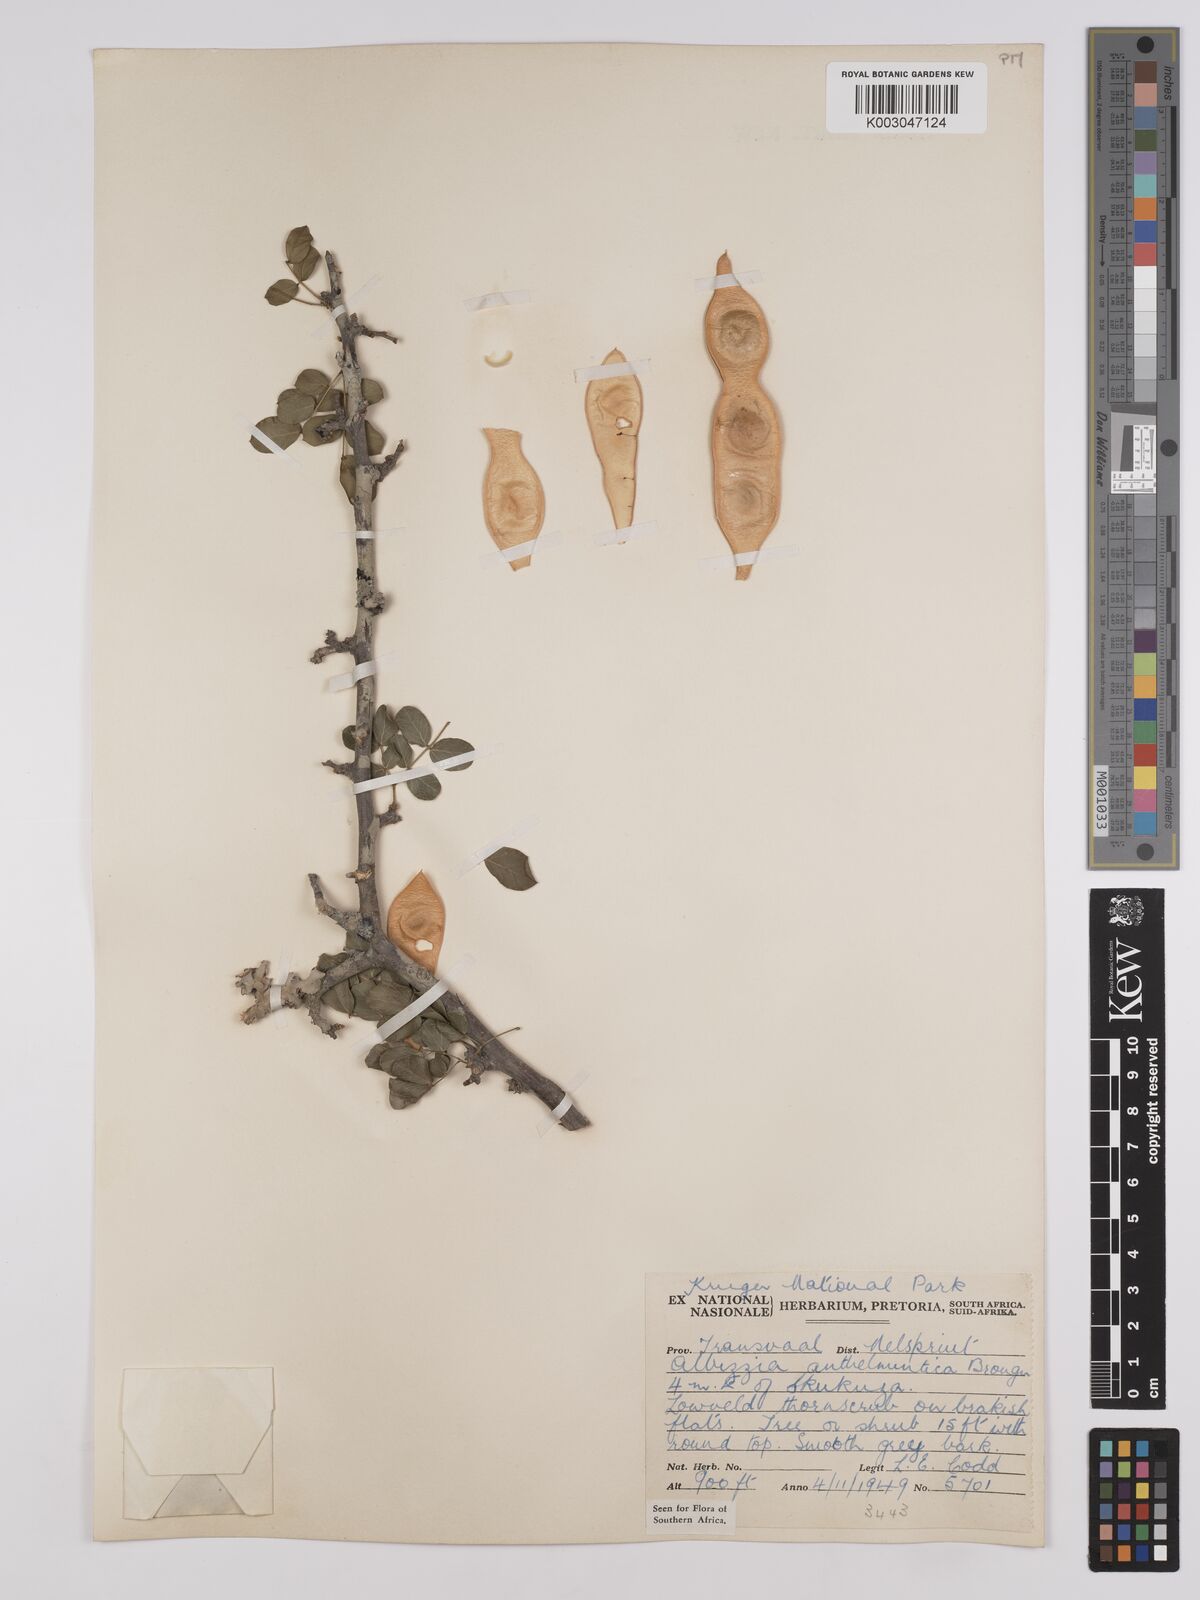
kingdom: Plantae
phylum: Tracheophyta
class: Magnoliopsida
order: Fabales
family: Fabaceae
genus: Albizia
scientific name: Albizia anthelmintica
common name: Worm-bark false-thorn
